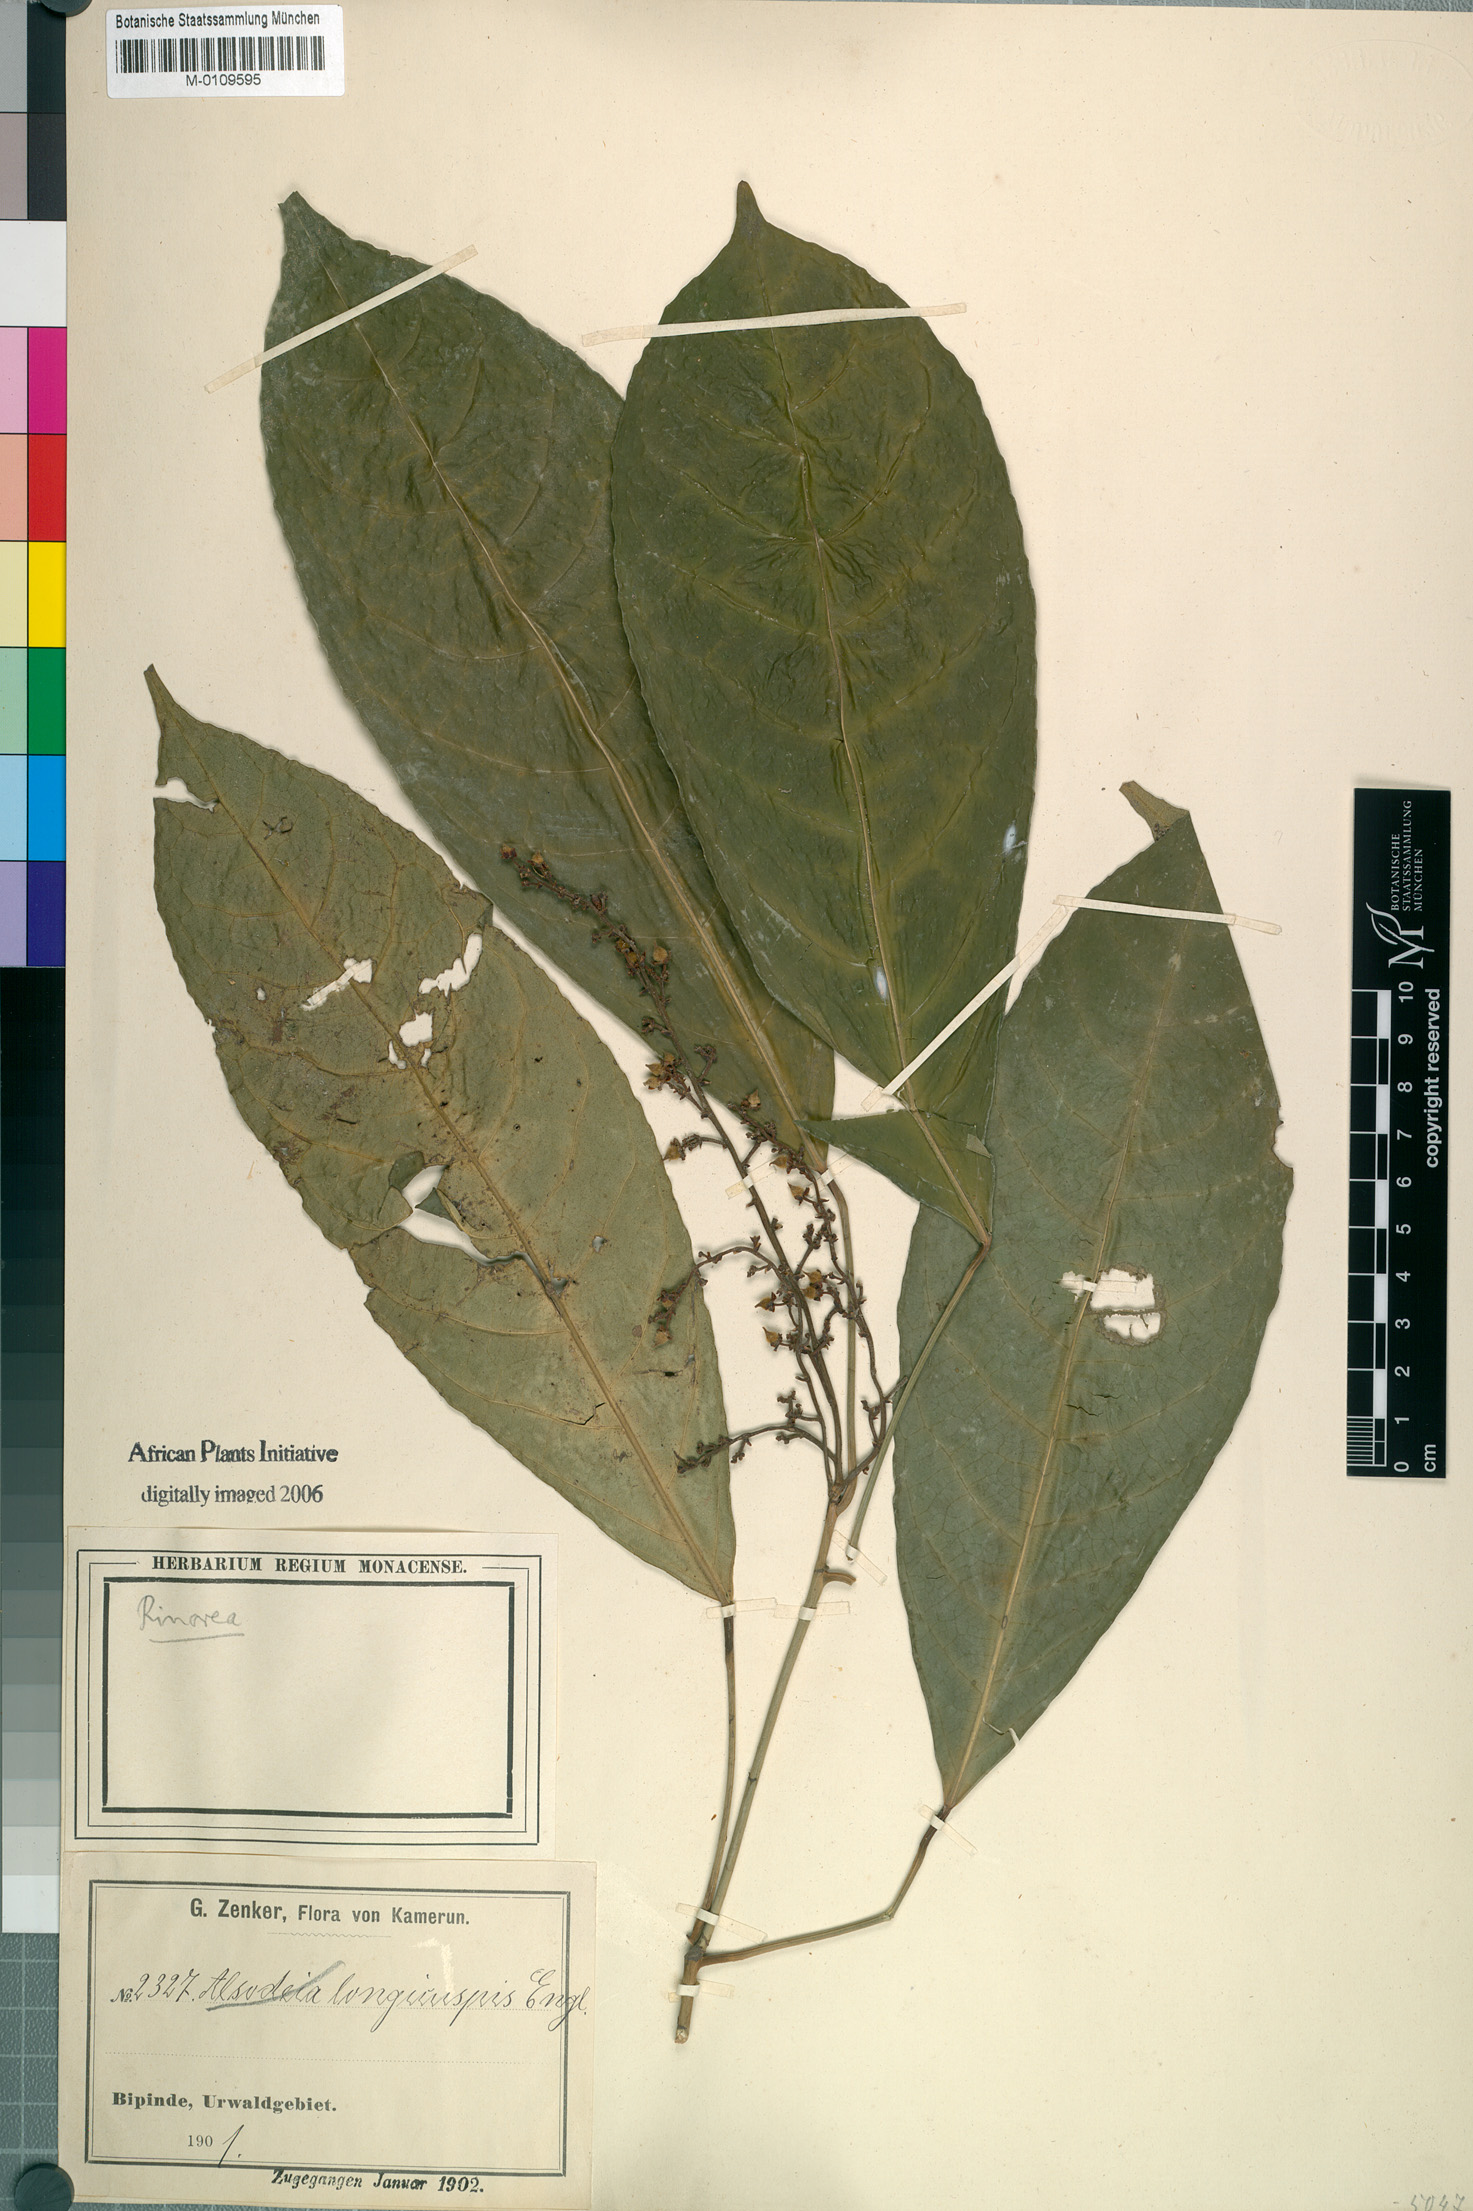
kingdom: Plantae
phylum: Tracheophyta
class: Magnoliopsida
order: Malpighiales
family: Violaceae
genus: Rinorea
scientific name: Rinorea welwitschii
